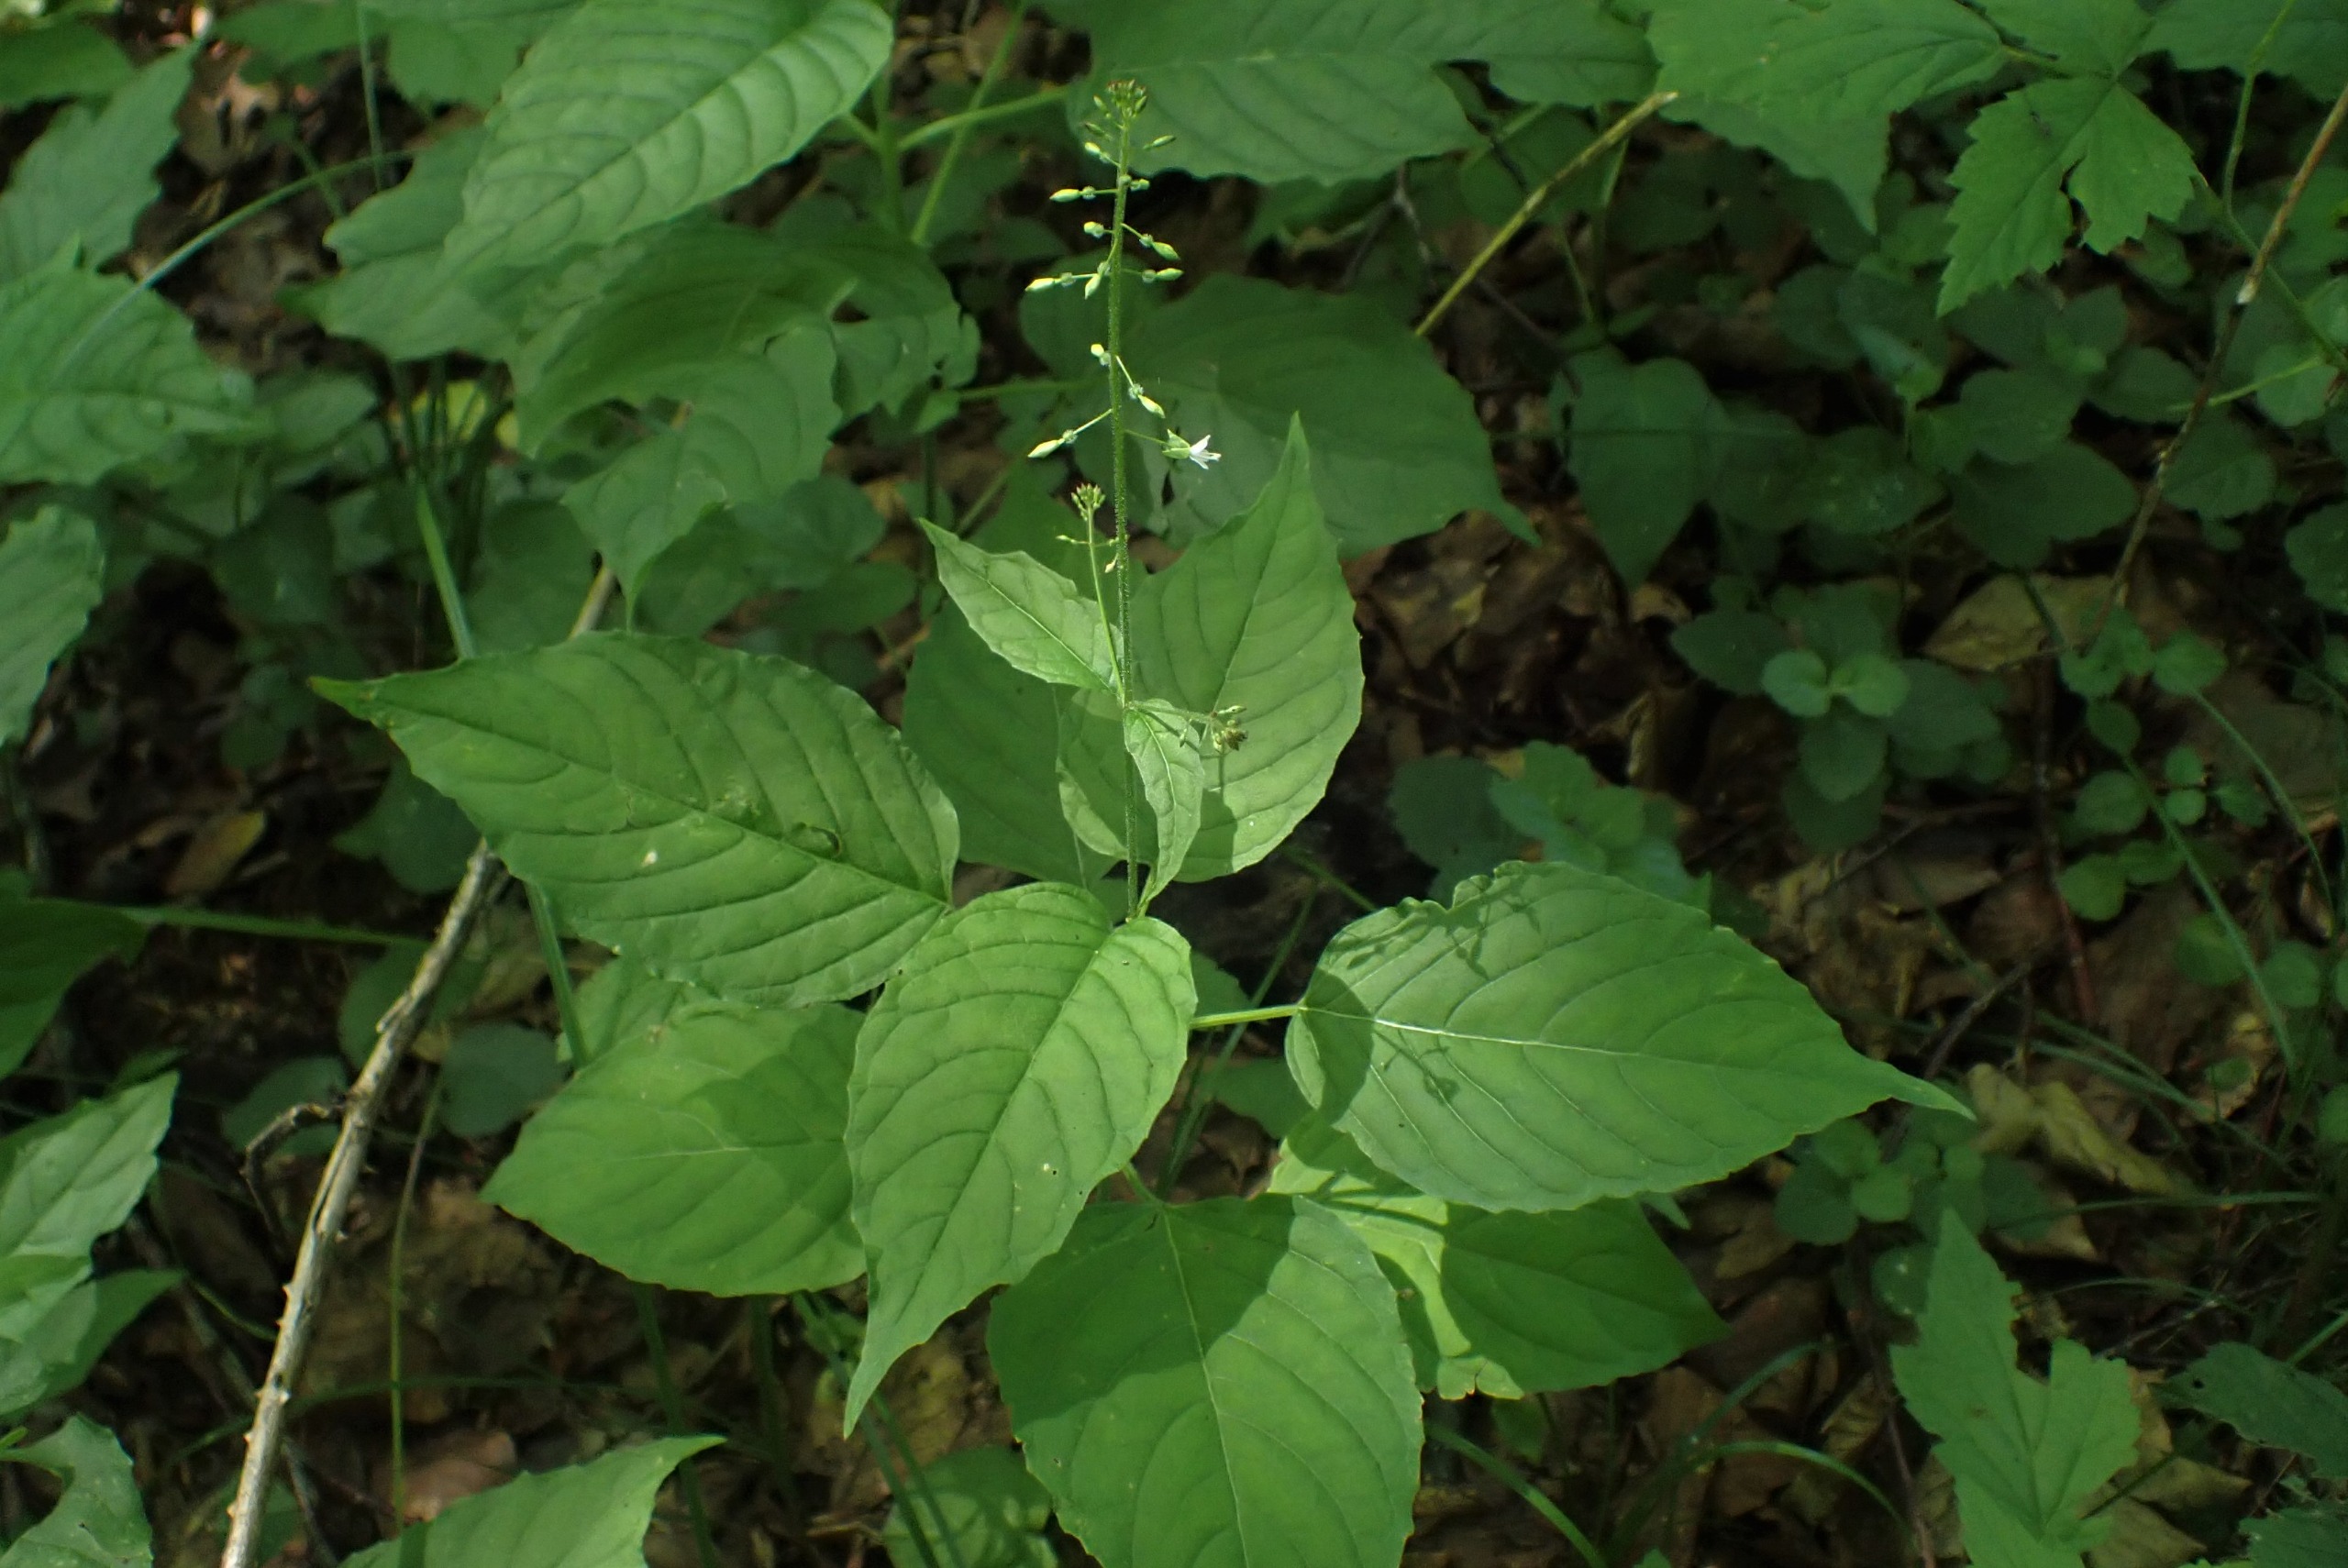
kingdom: Plantae
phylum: Tracheophyta
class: Magnoliopsida
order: Myrtales
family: Onagraceae
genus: Circaea
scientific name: Circaea lutetiana
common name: Dunet steffensurt
